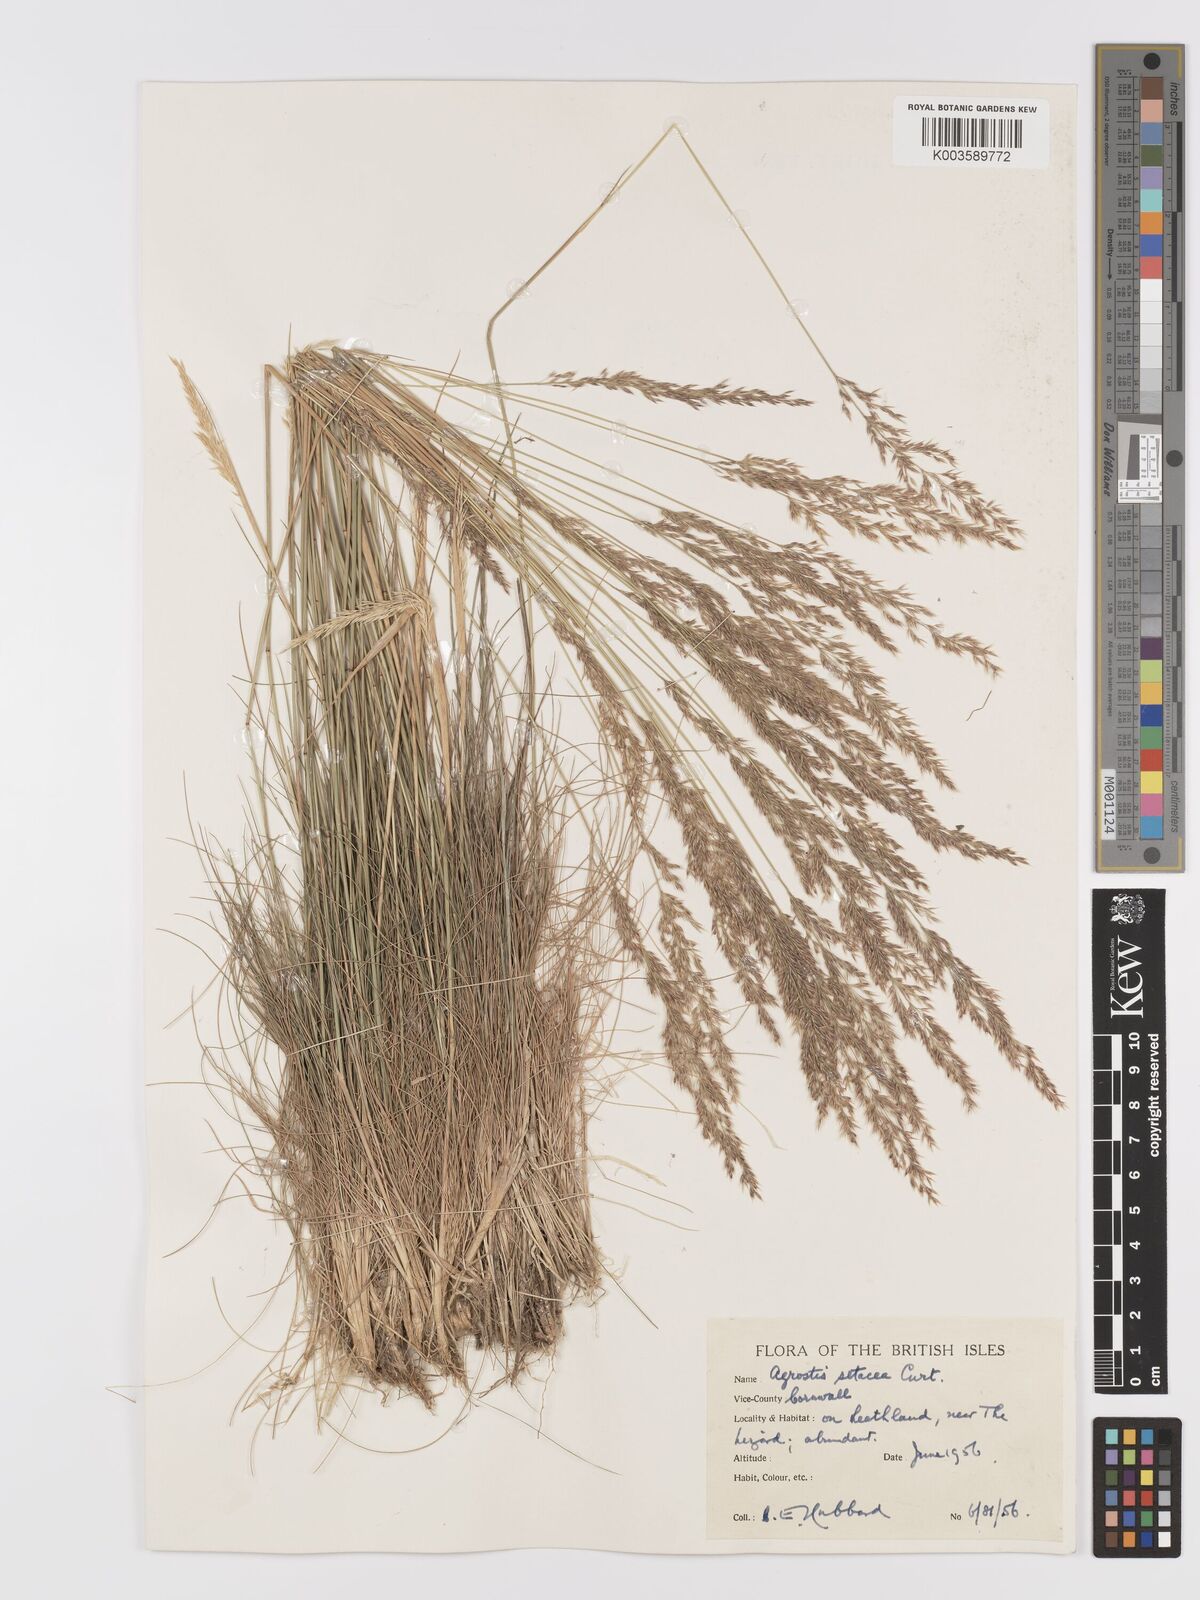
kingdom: Plantae
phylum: Tracheophyta
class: Liliopsida
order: Poales
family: Poaceae
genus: Alpagrostis
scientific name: Alpagrostis setacea
